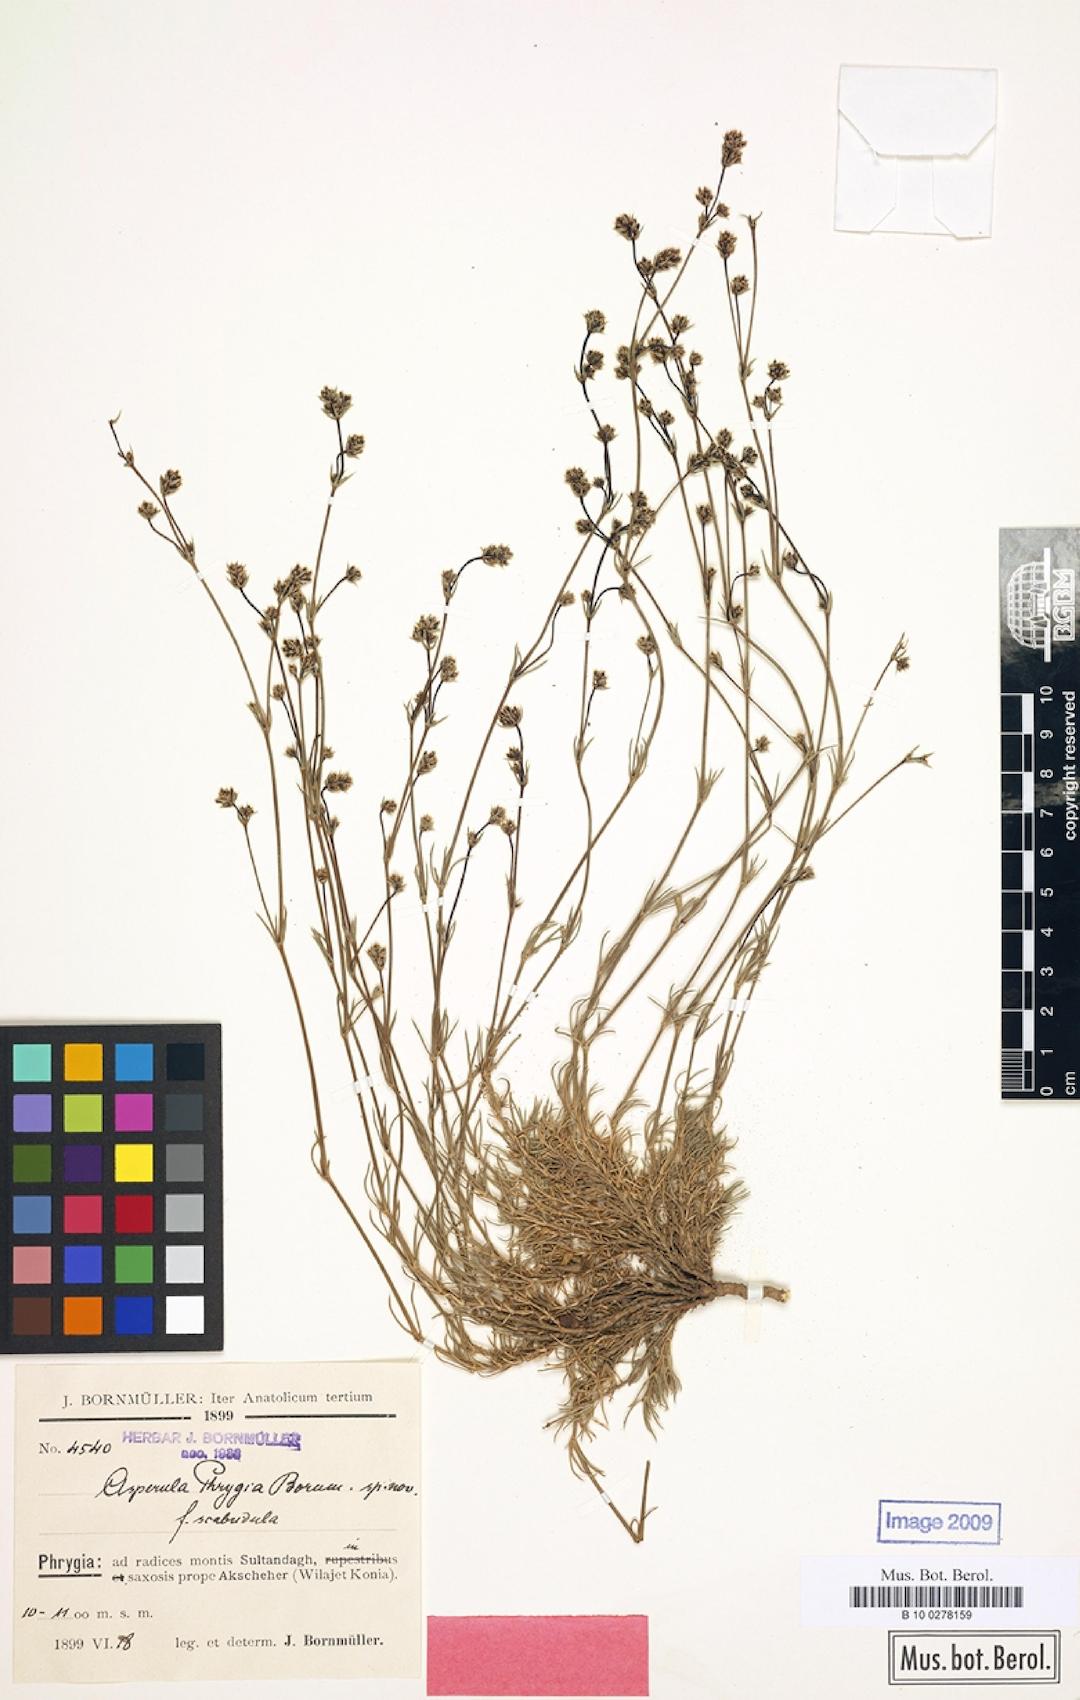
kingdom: Plantae
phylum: Tracheophyta
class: Magnoliopsida
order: Gentianales
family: Rubiaceae
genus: Cynanchica
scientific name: Cynanchica lilaciflora
